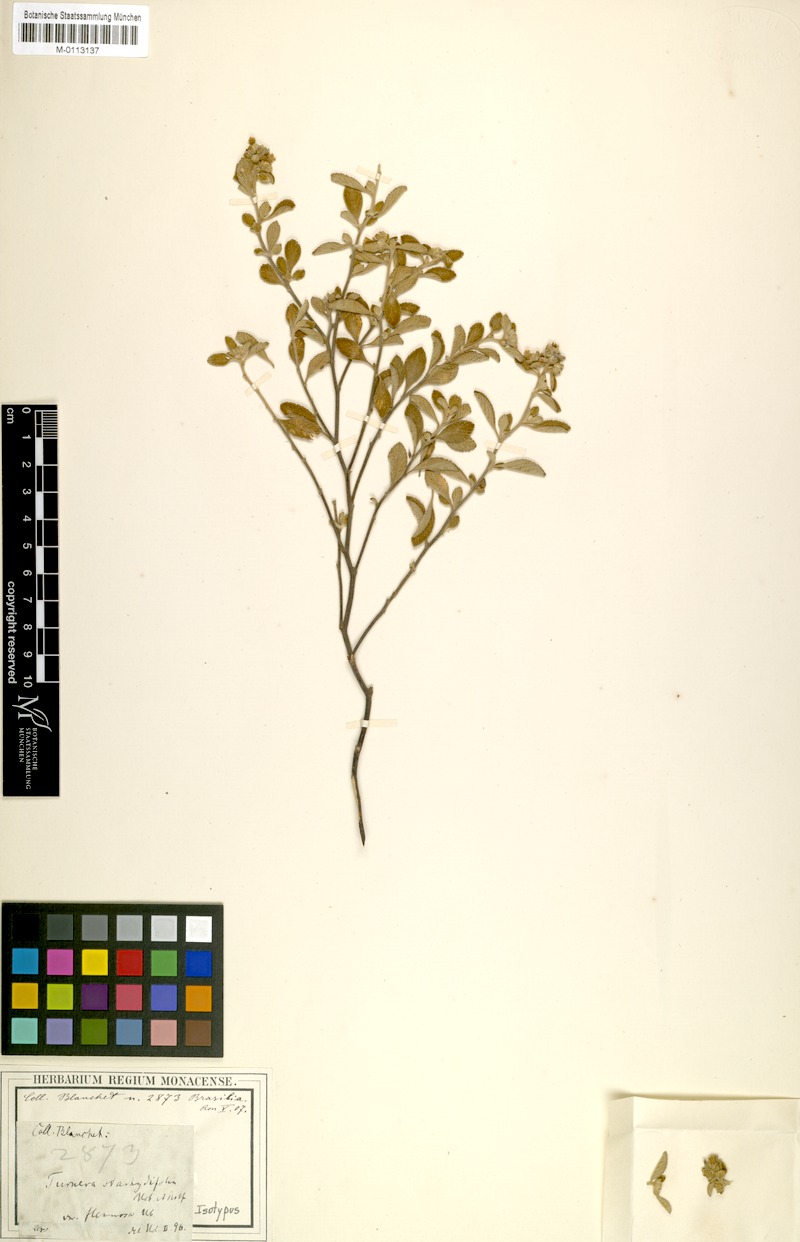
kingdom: Plantae
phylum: Tracheophyta
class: Magnoliopsida
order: Malpighiales
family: Turneraceae
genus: Turnera
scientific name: Turnera stachydifolia
